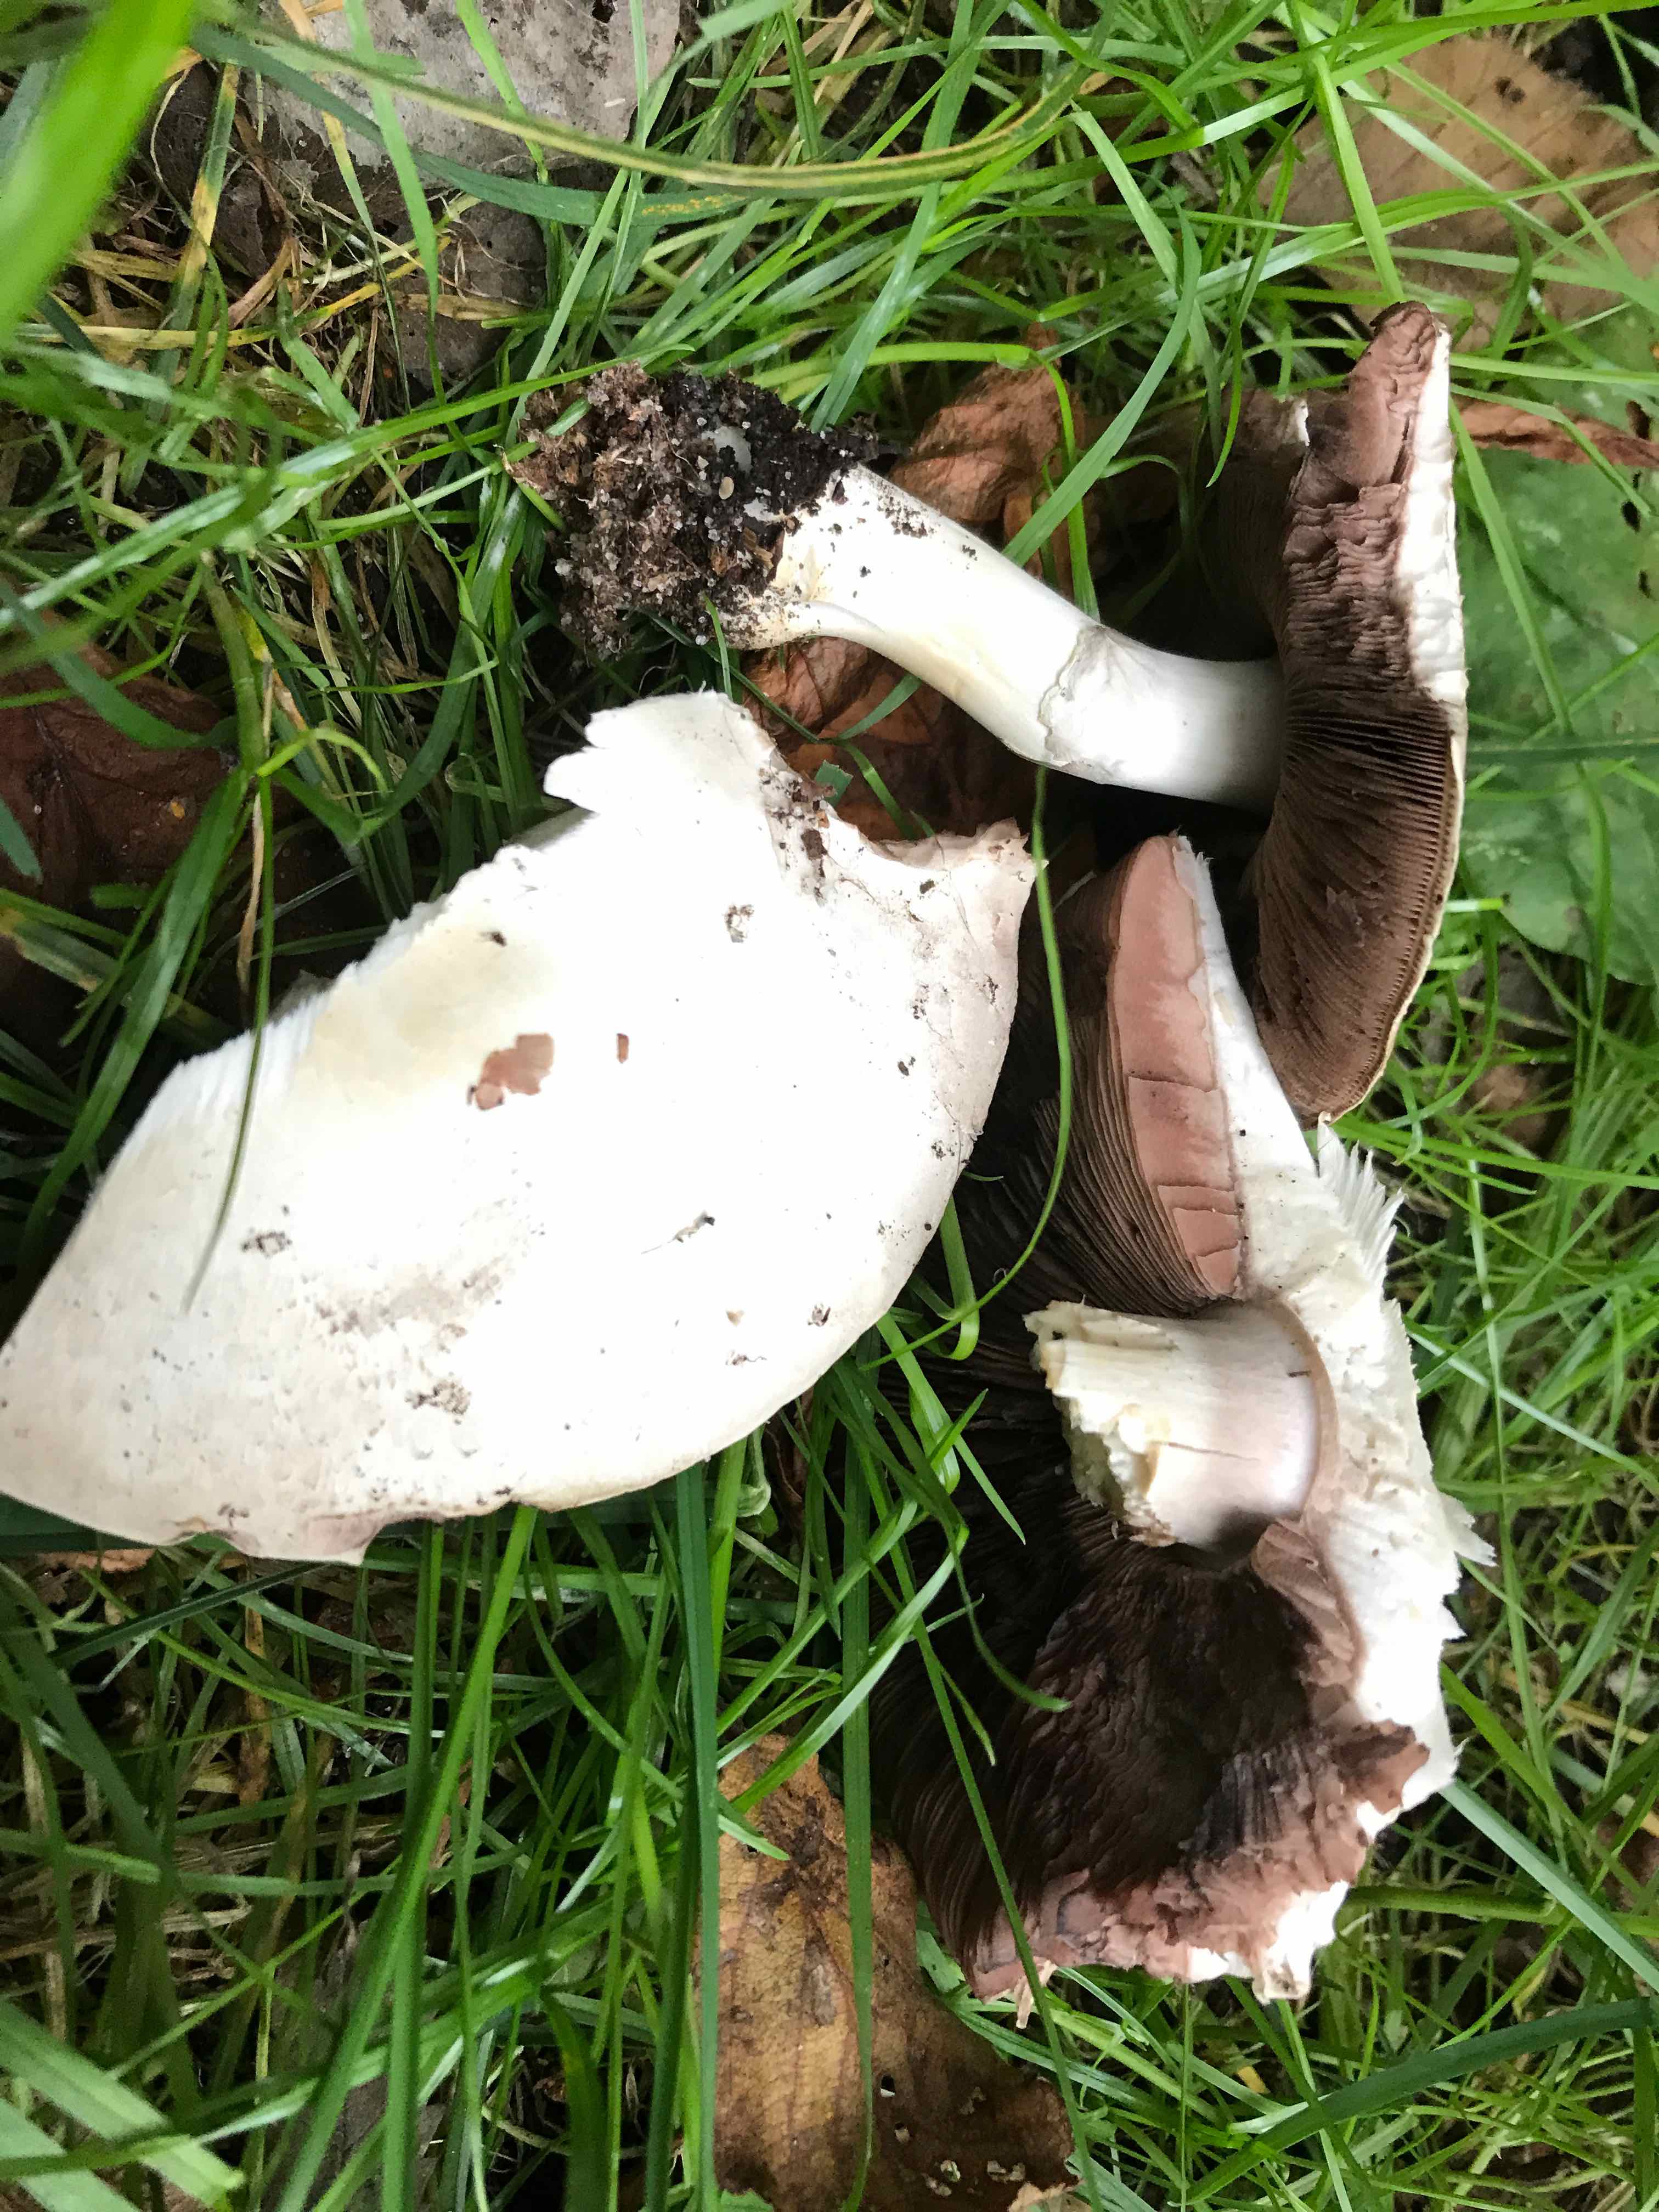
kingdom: Fungi
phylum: Basidiomycota
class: Agaricomycetes
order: Agaricales
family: Agaricaceae
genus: Agaricus
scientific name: Agaricus
